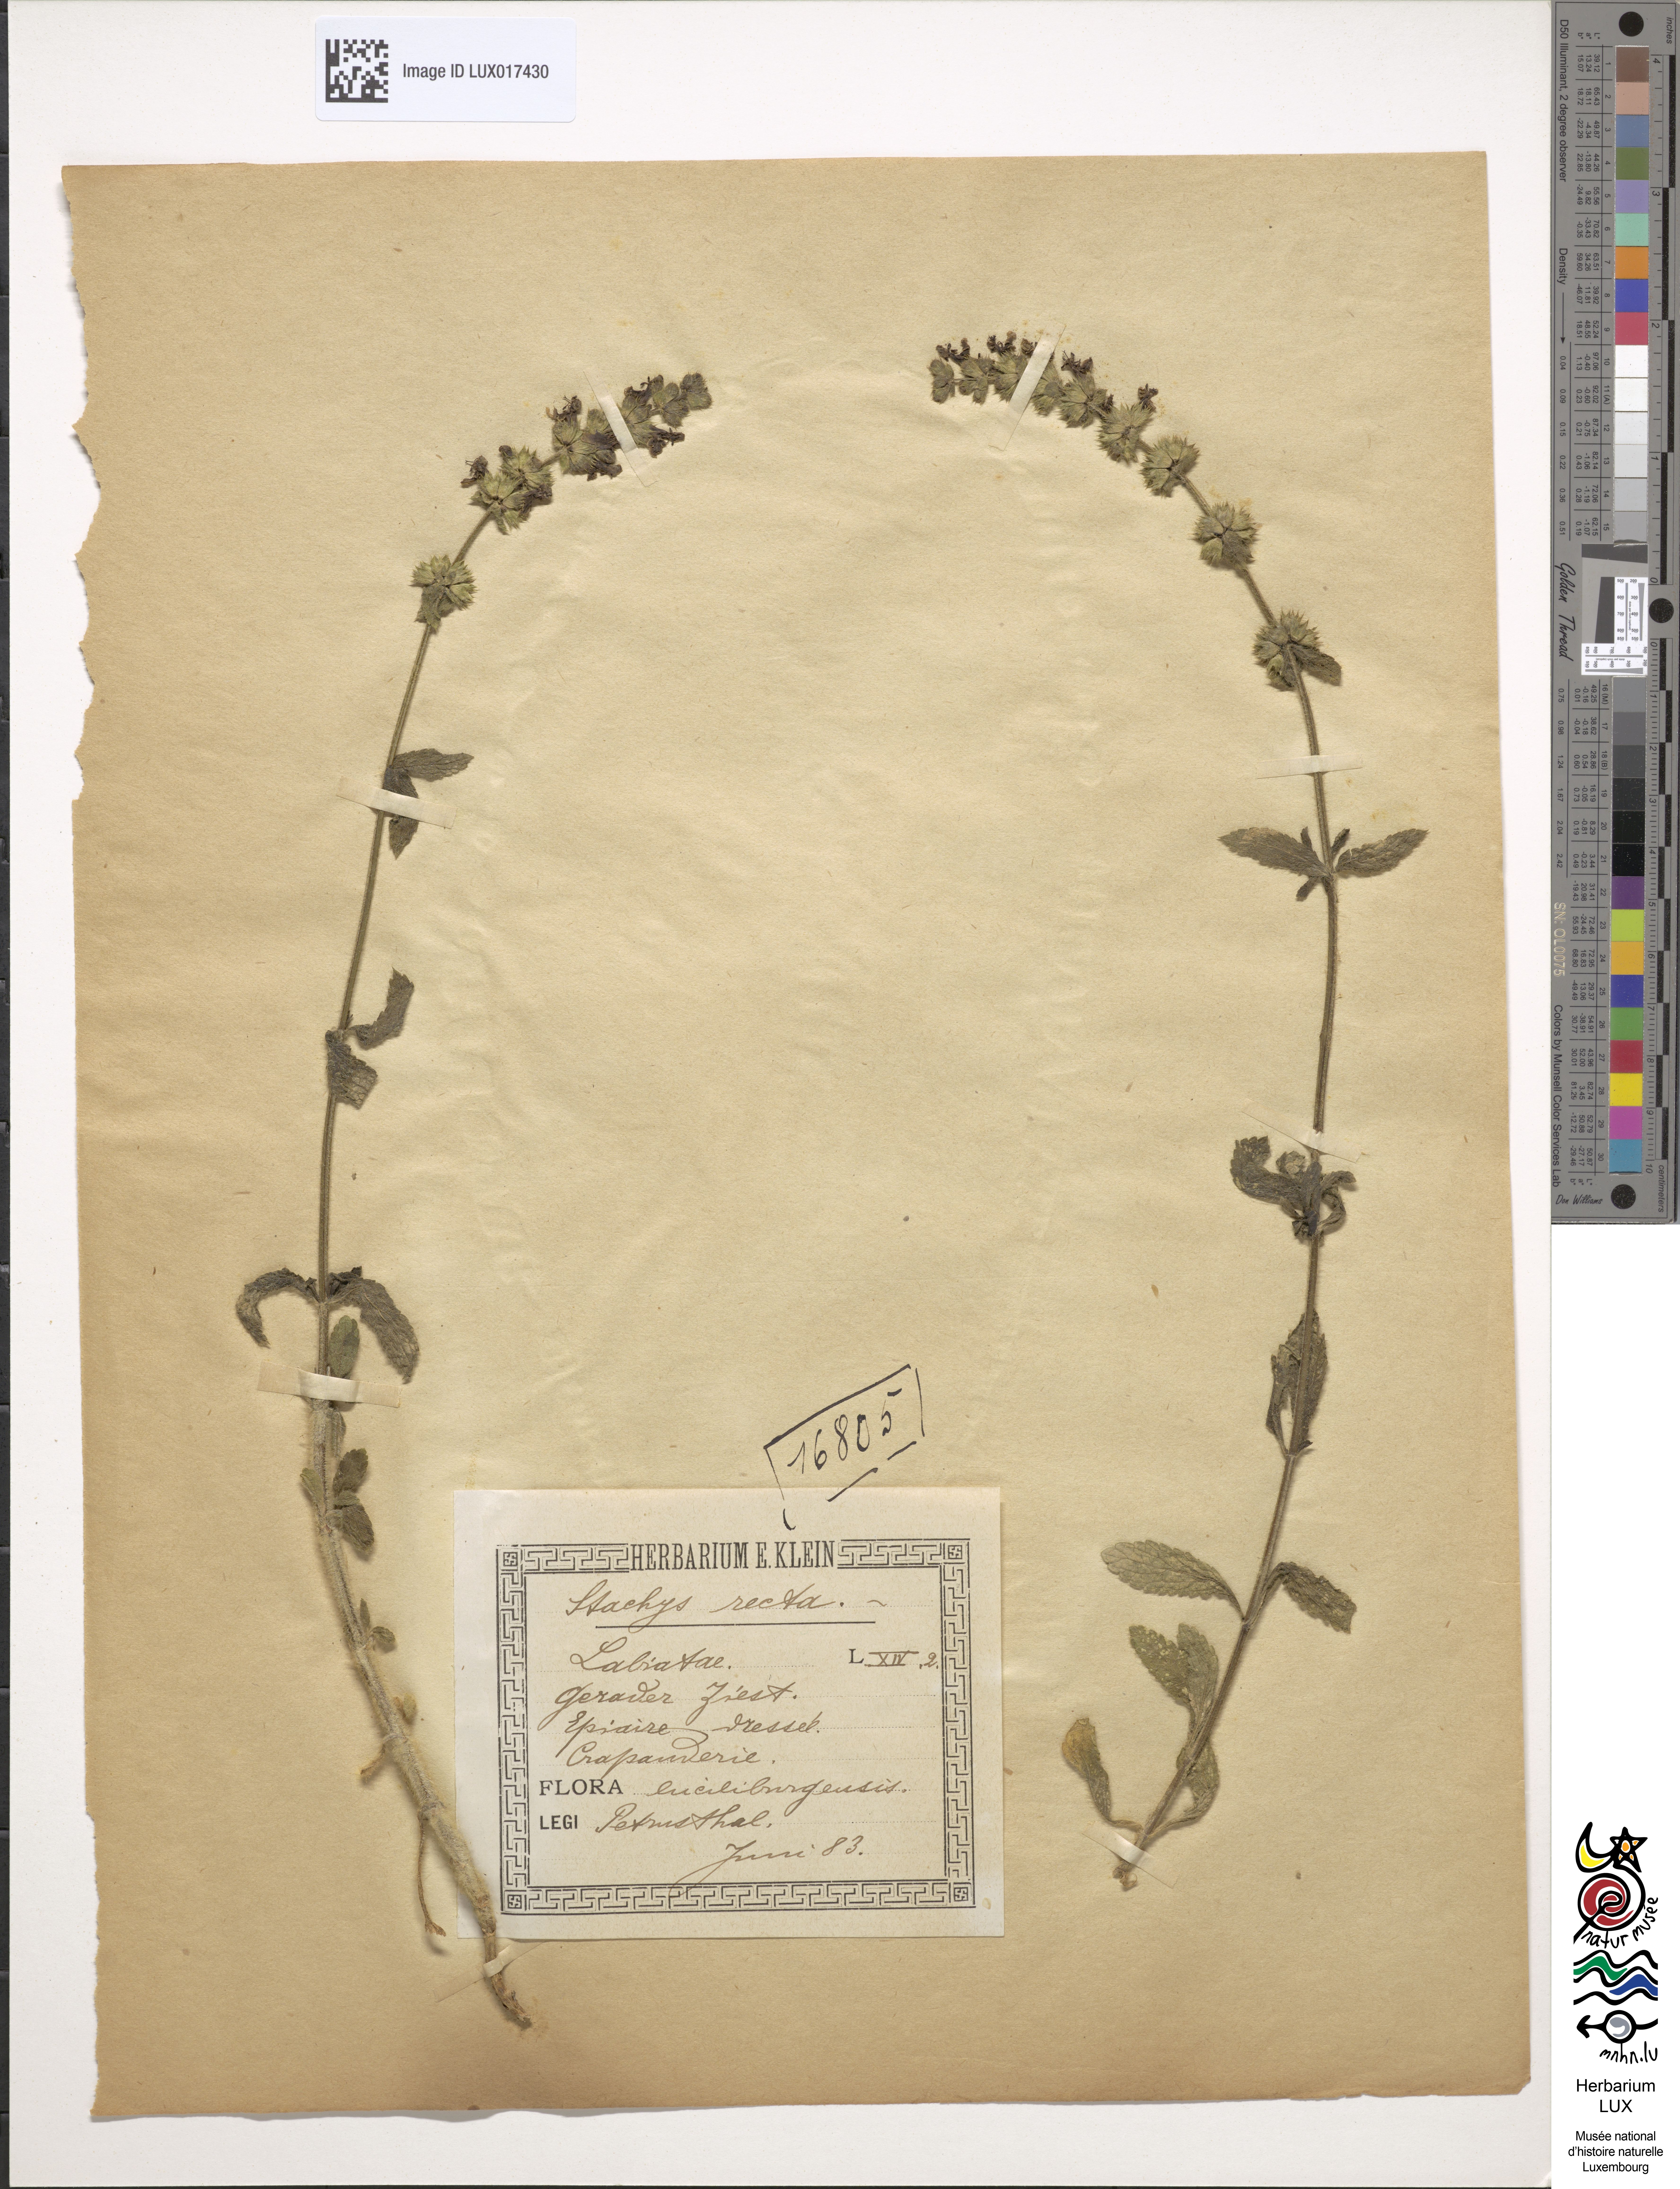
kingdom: Plantae
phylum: Tracheophyta
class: Magnoliopsida
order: Lamiales
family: Lamiaceae
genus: Stachys
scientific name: Stachys recta
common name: Perennial yellow-woundwort
